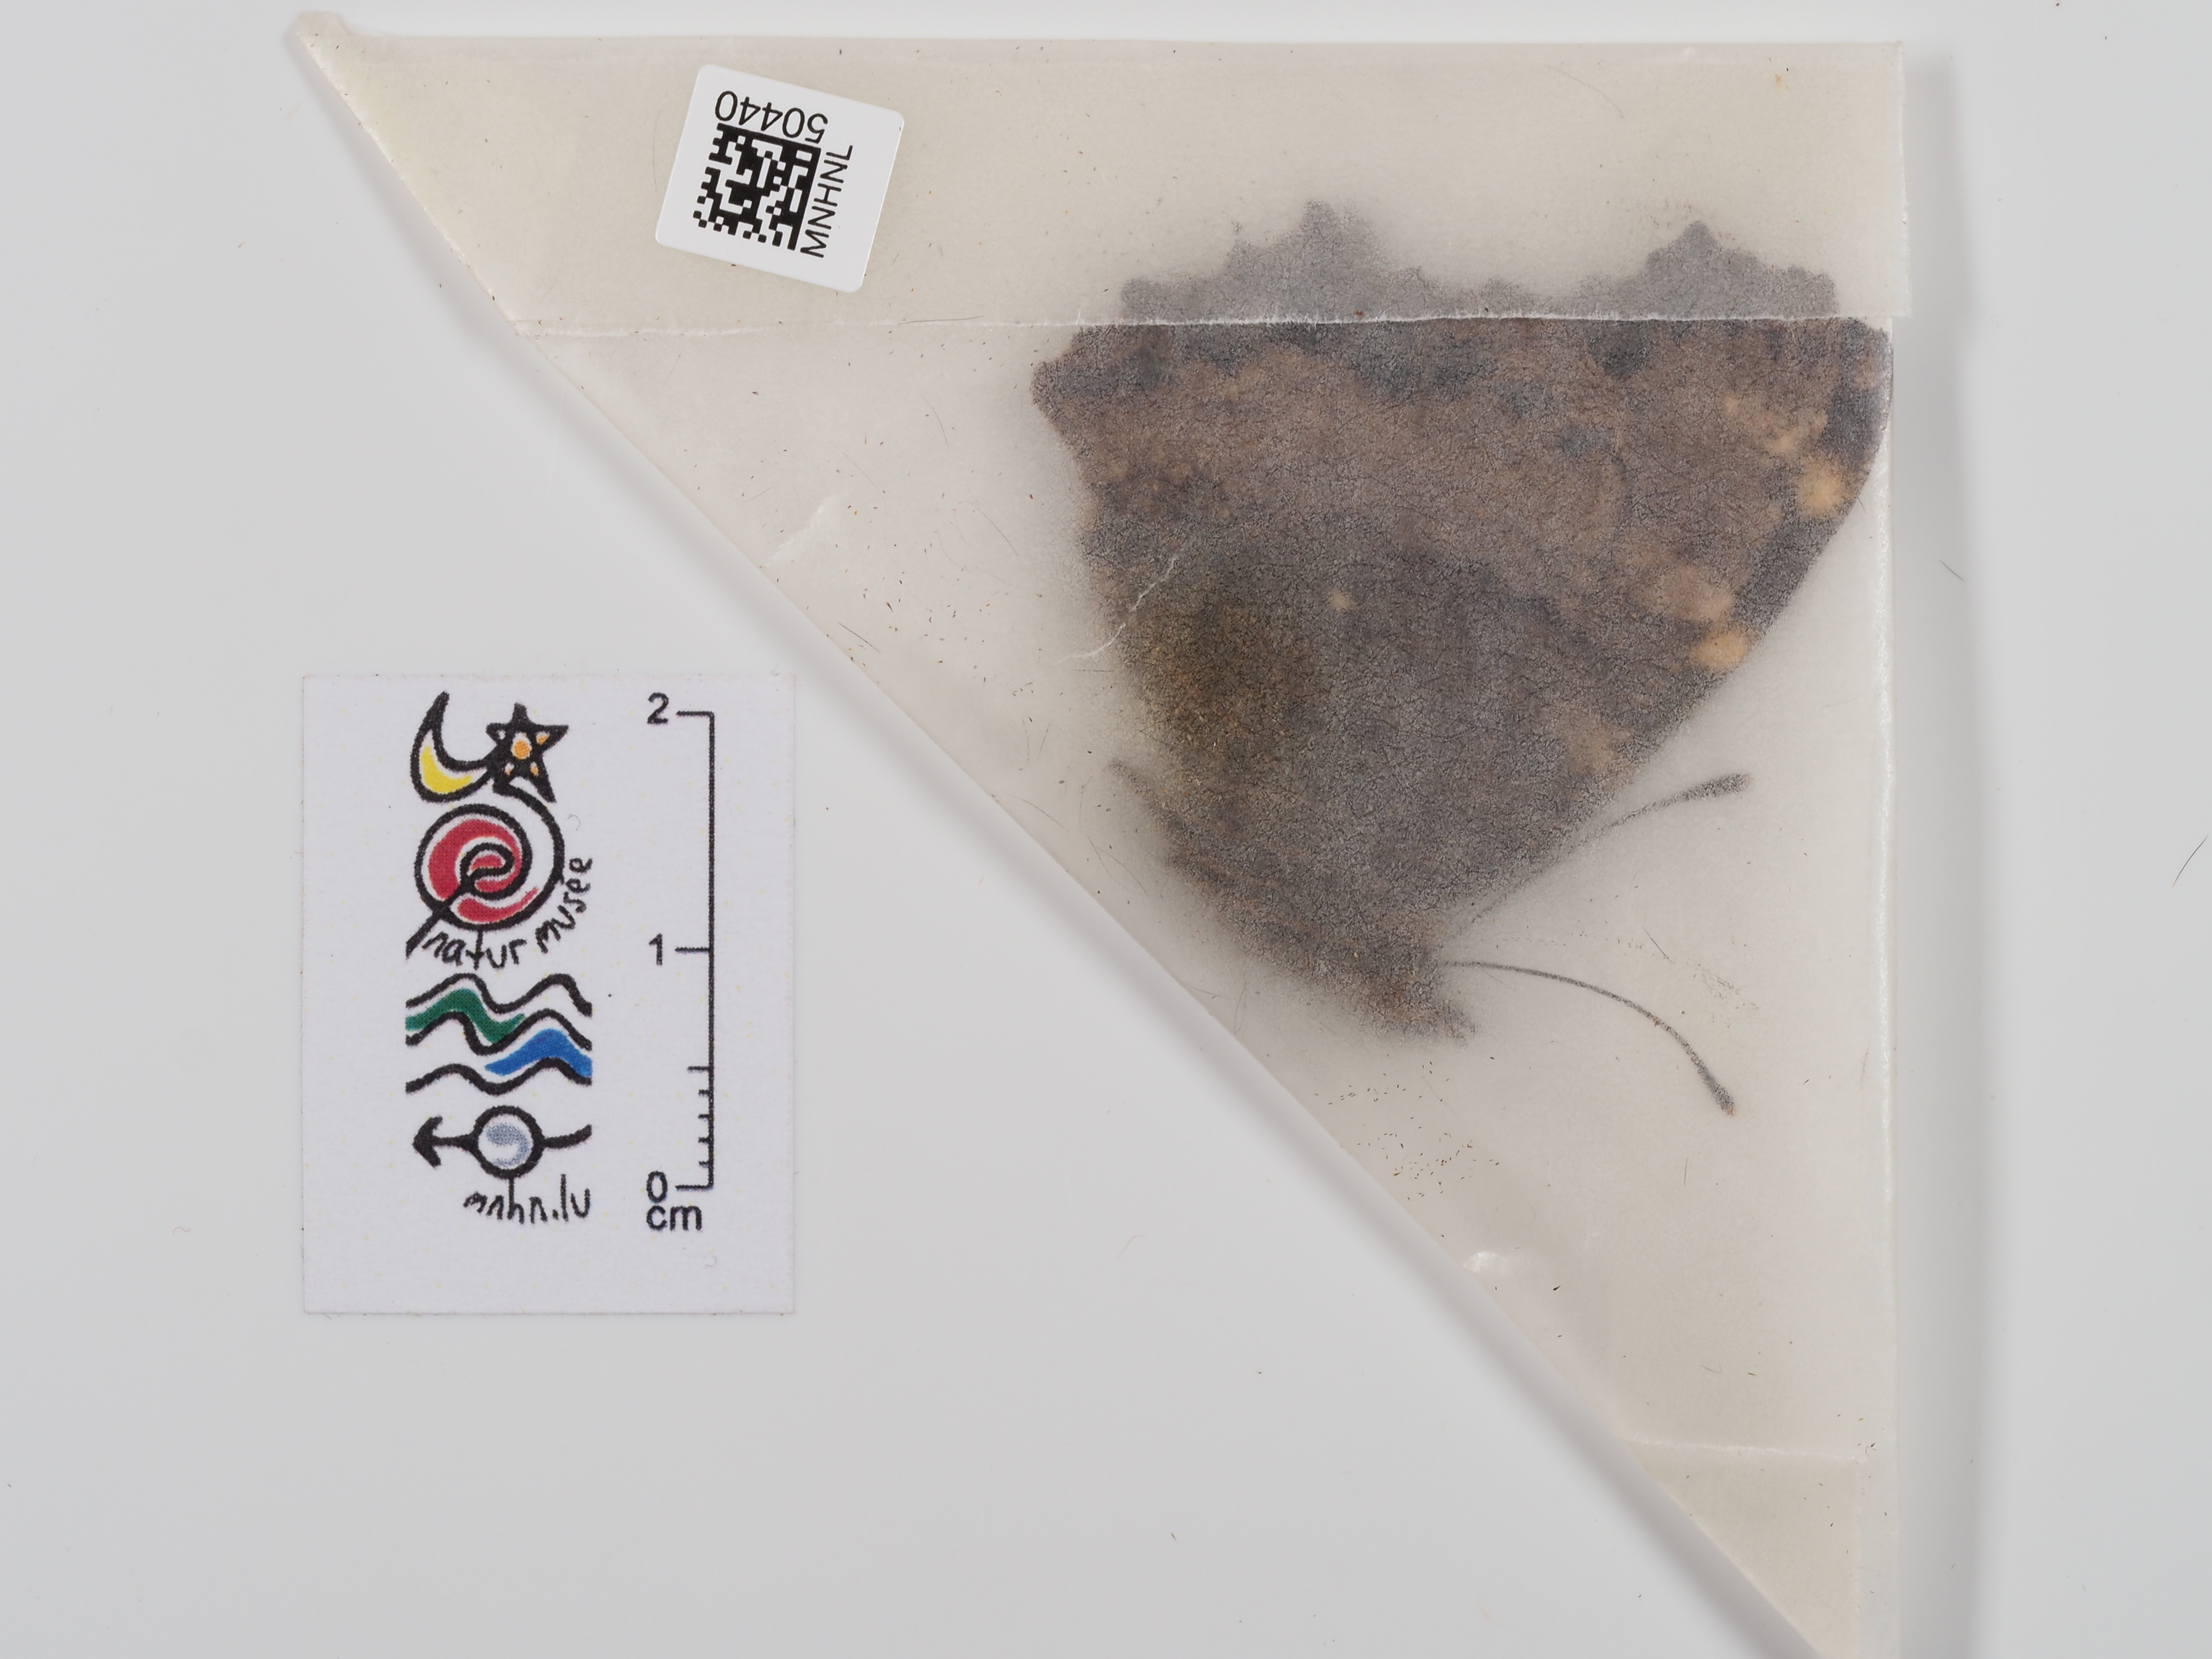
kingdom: Animalia
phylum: Arthropoda
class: Insecta
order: Lepidoptera
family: Nymphalidae
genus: Nymphalis
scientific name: Nymphalis polychloros
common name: Large tortoiseshell
